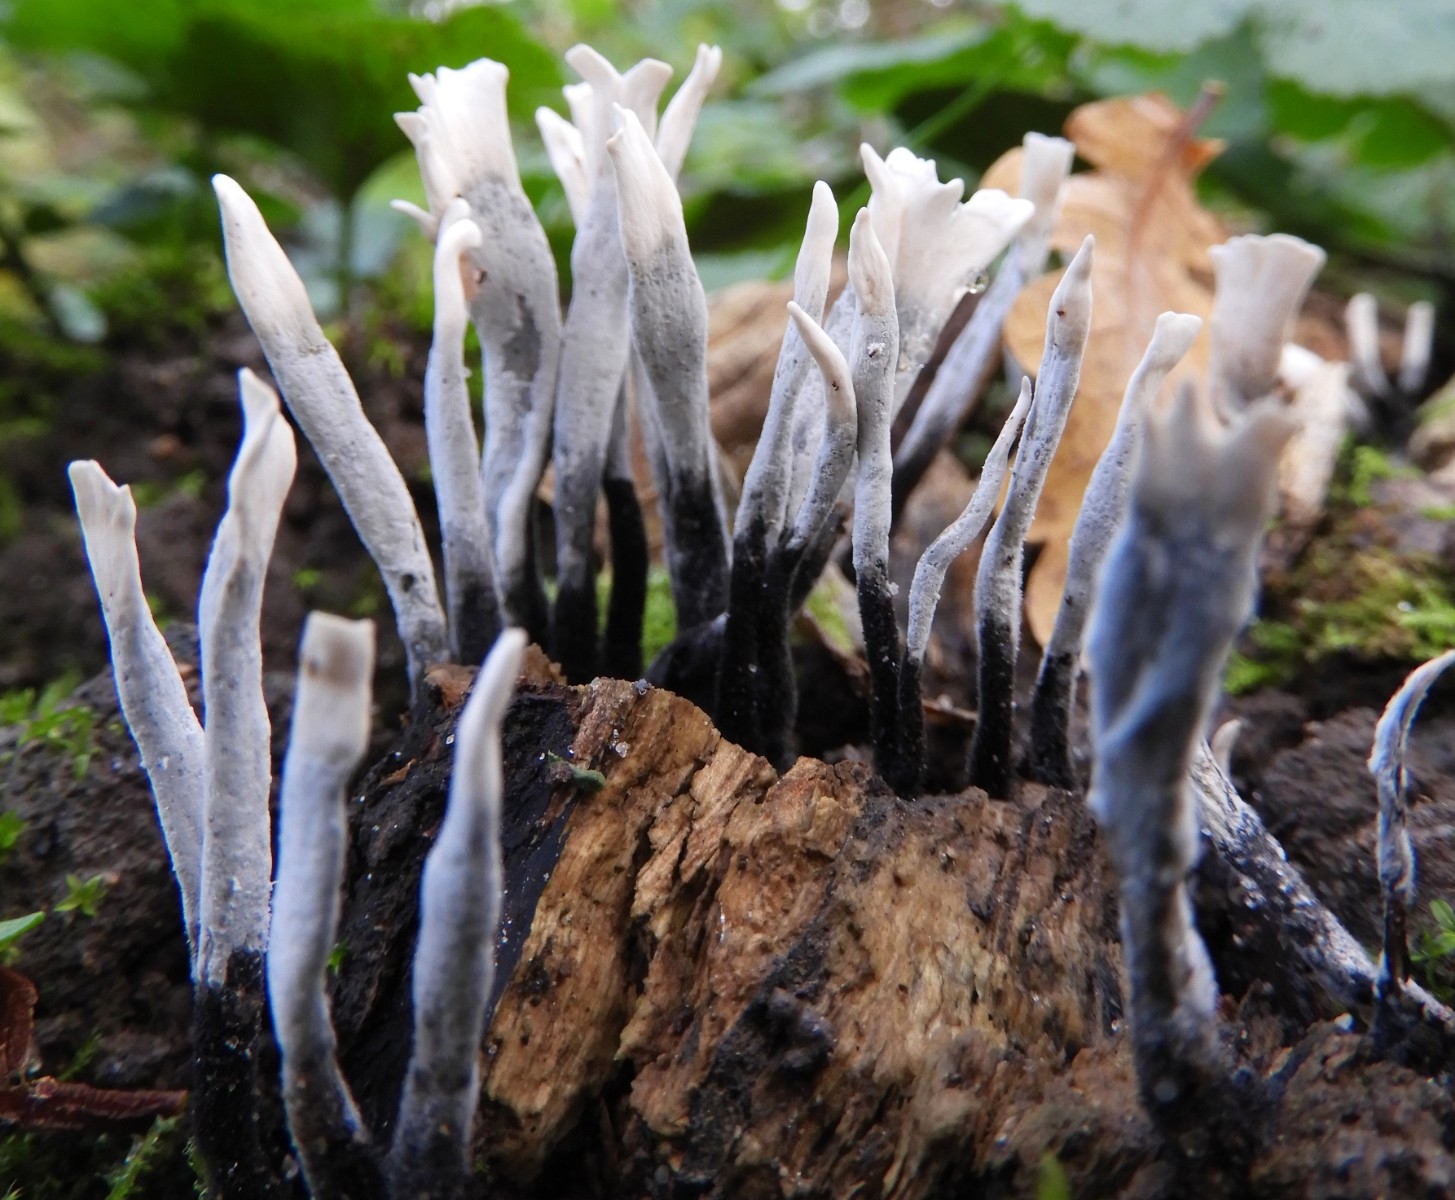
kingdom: Fungi
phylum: Ascomycota
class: Sordariomycetes
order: Xylariales
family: Xylariaceae
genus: Xylaria
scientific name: Xylaria hypoxylon
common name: grenet stødsvamp
